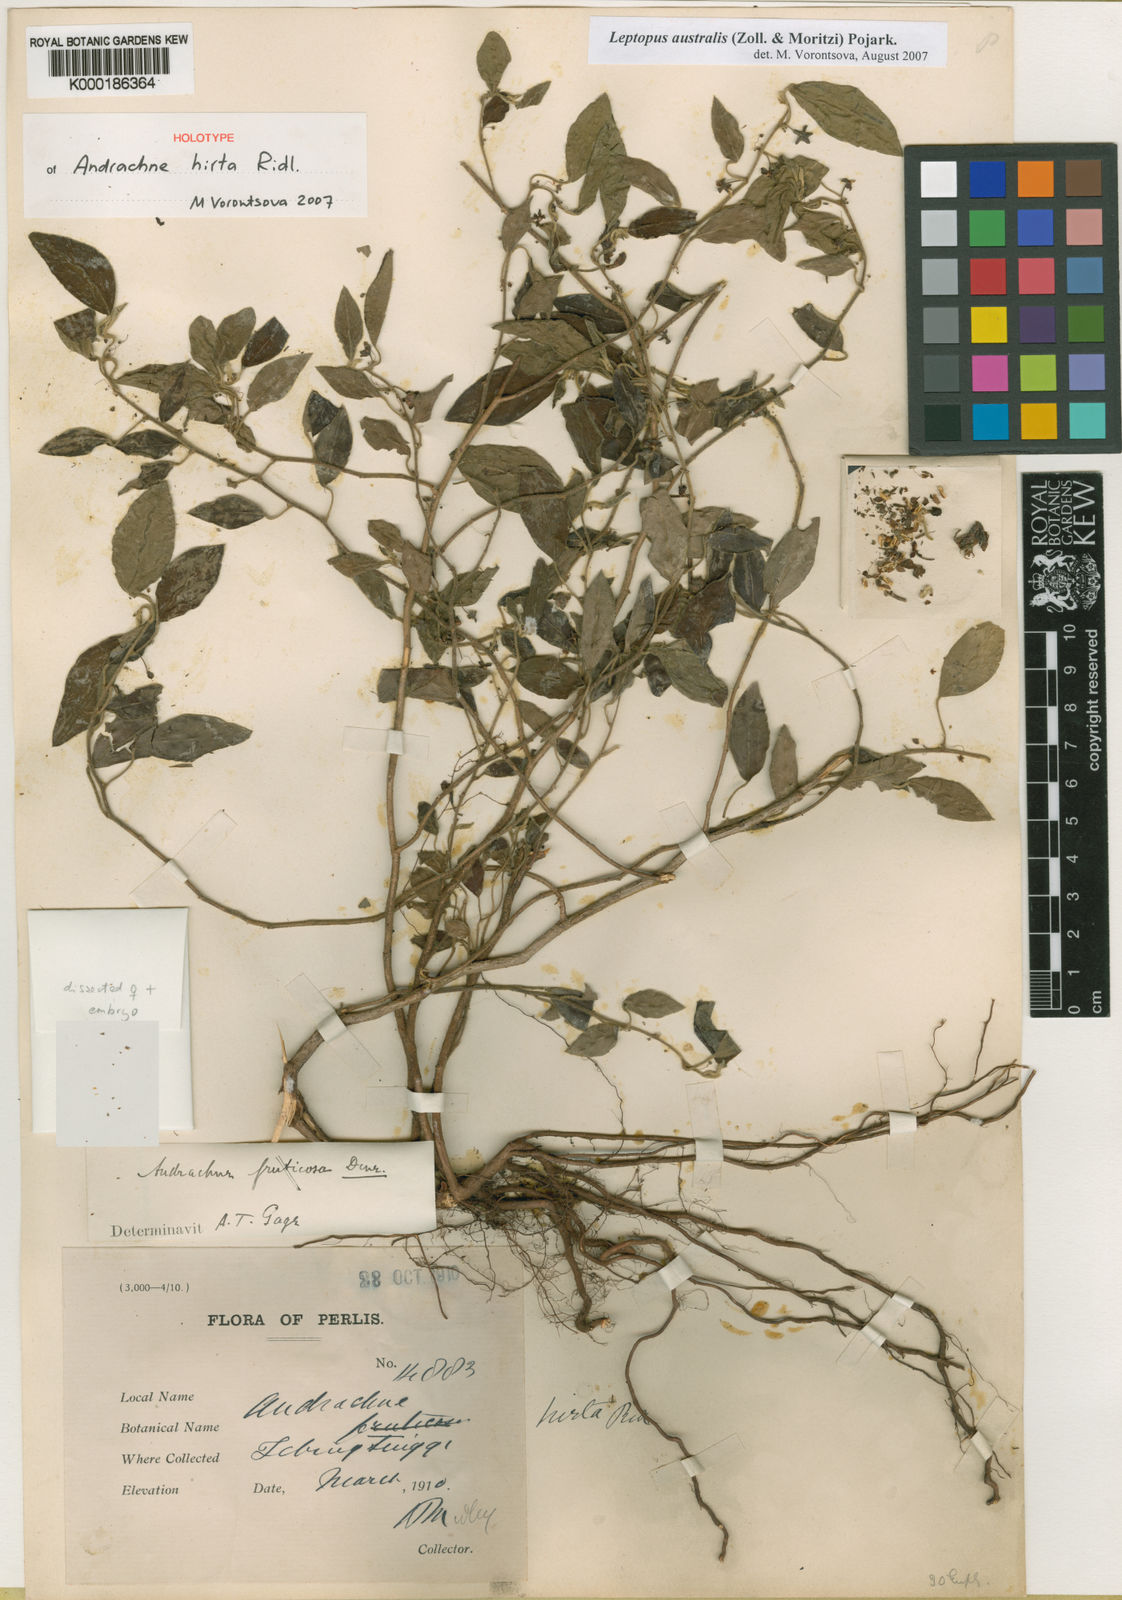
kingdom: Plantae
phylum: Tracheophyta
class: Magnoliopsida
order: Malpighiales
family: Phyllanthaceae
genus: Leptopus
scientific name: Leptopus australis
